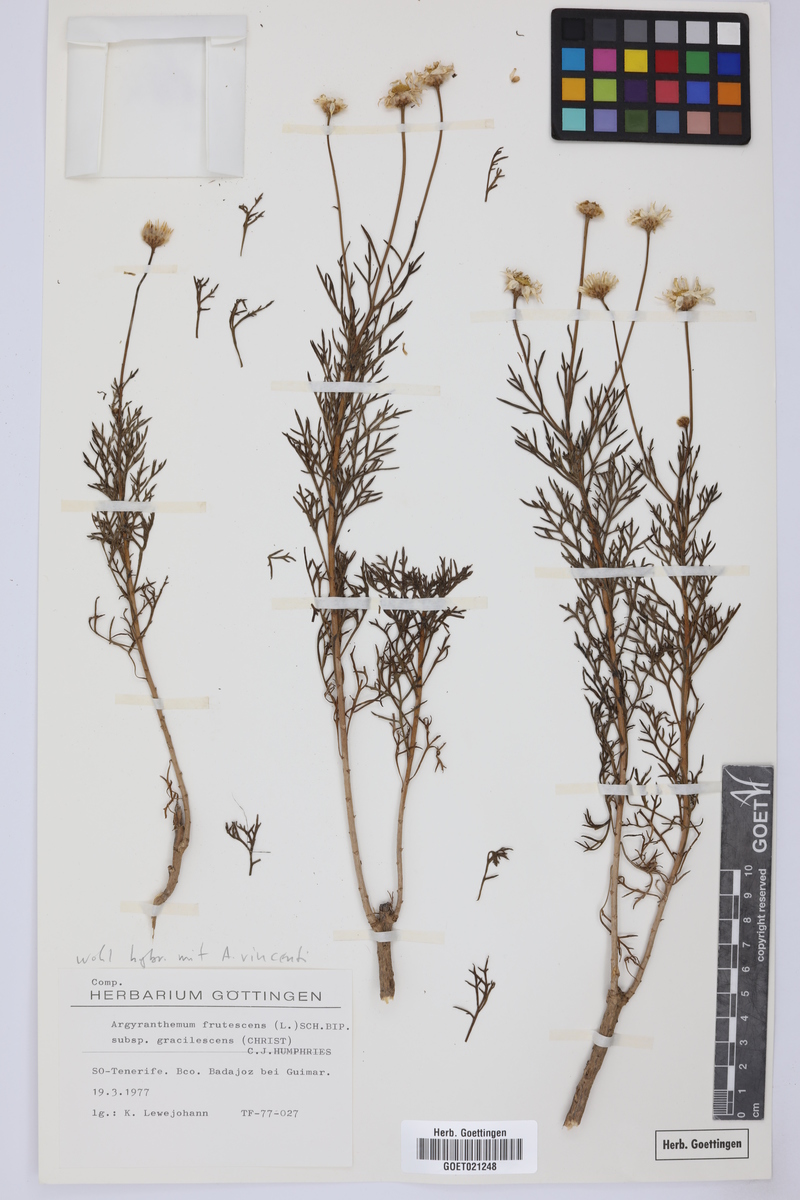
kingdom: Plantae
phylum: Tracheophyta
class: Magnoliopsida
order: Asterales
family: Asteraceae
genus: Argyranthemum
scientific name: Argyranthemum frutescens
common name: Paris daisy
